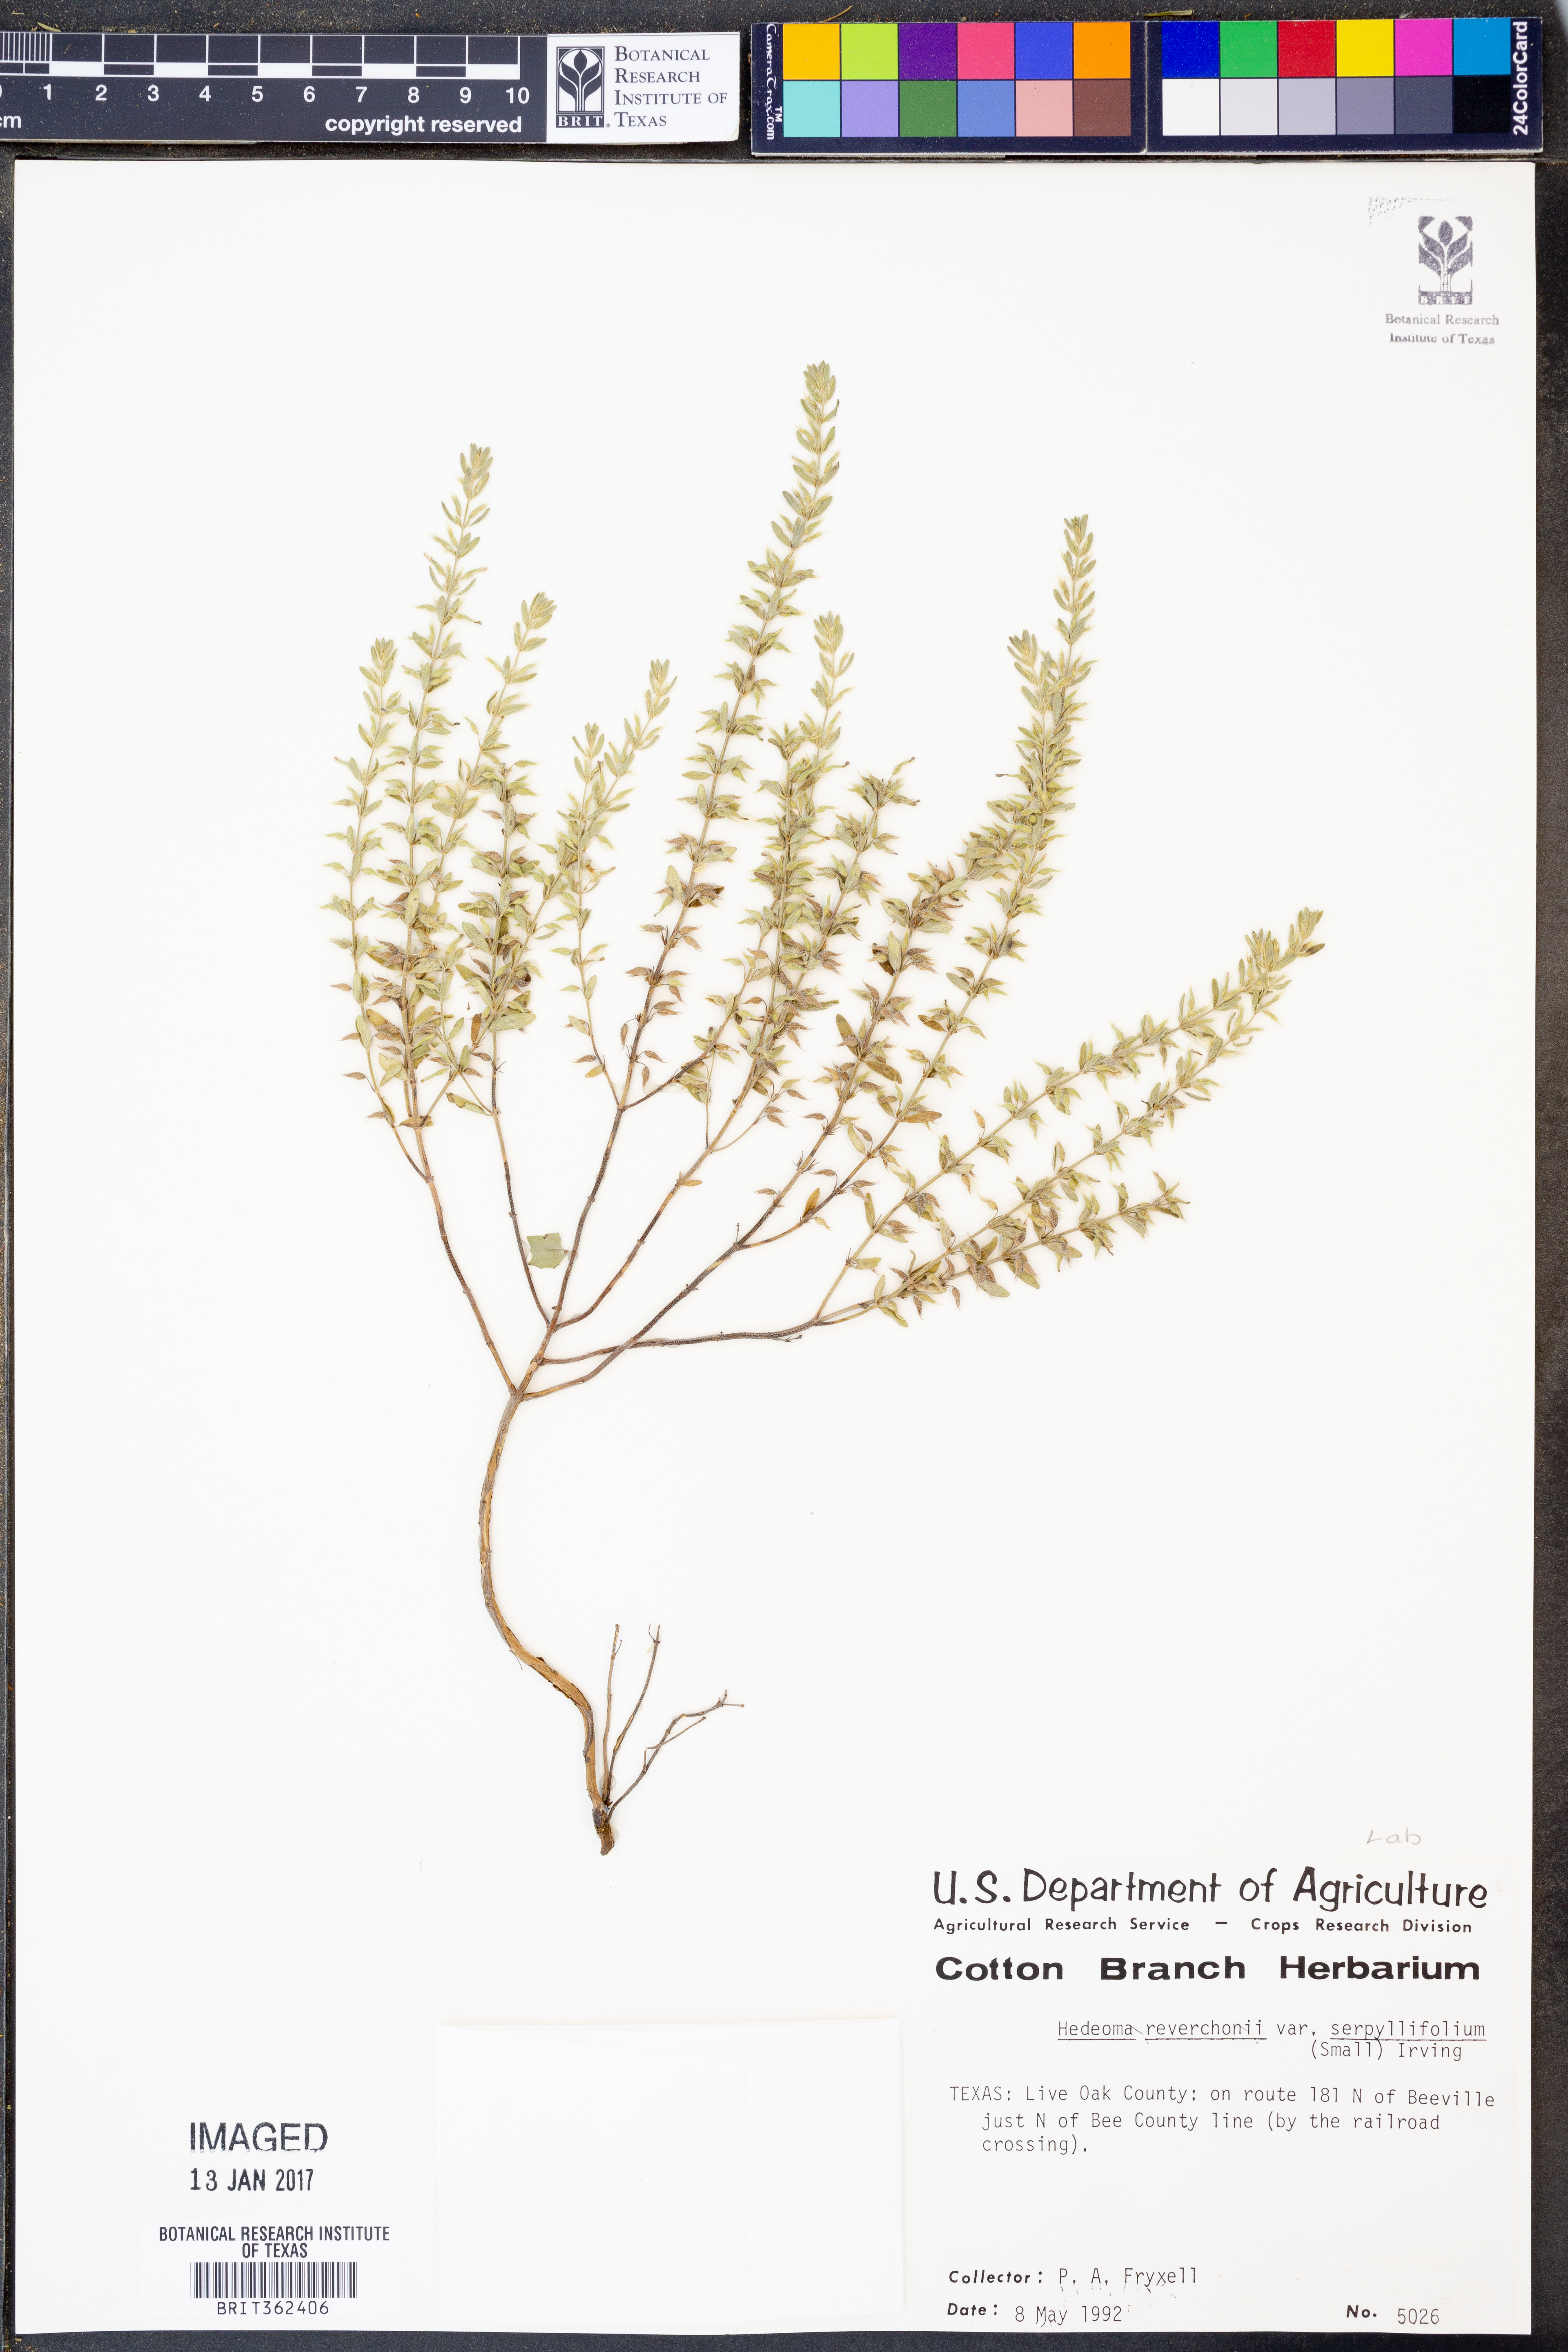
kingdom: Plantae
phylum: Tracheophyta
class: Magnoliopsida
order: Lamiales
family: Lamiaceae
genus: Hedeoma
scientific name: Hedeoma serpyllifolia
